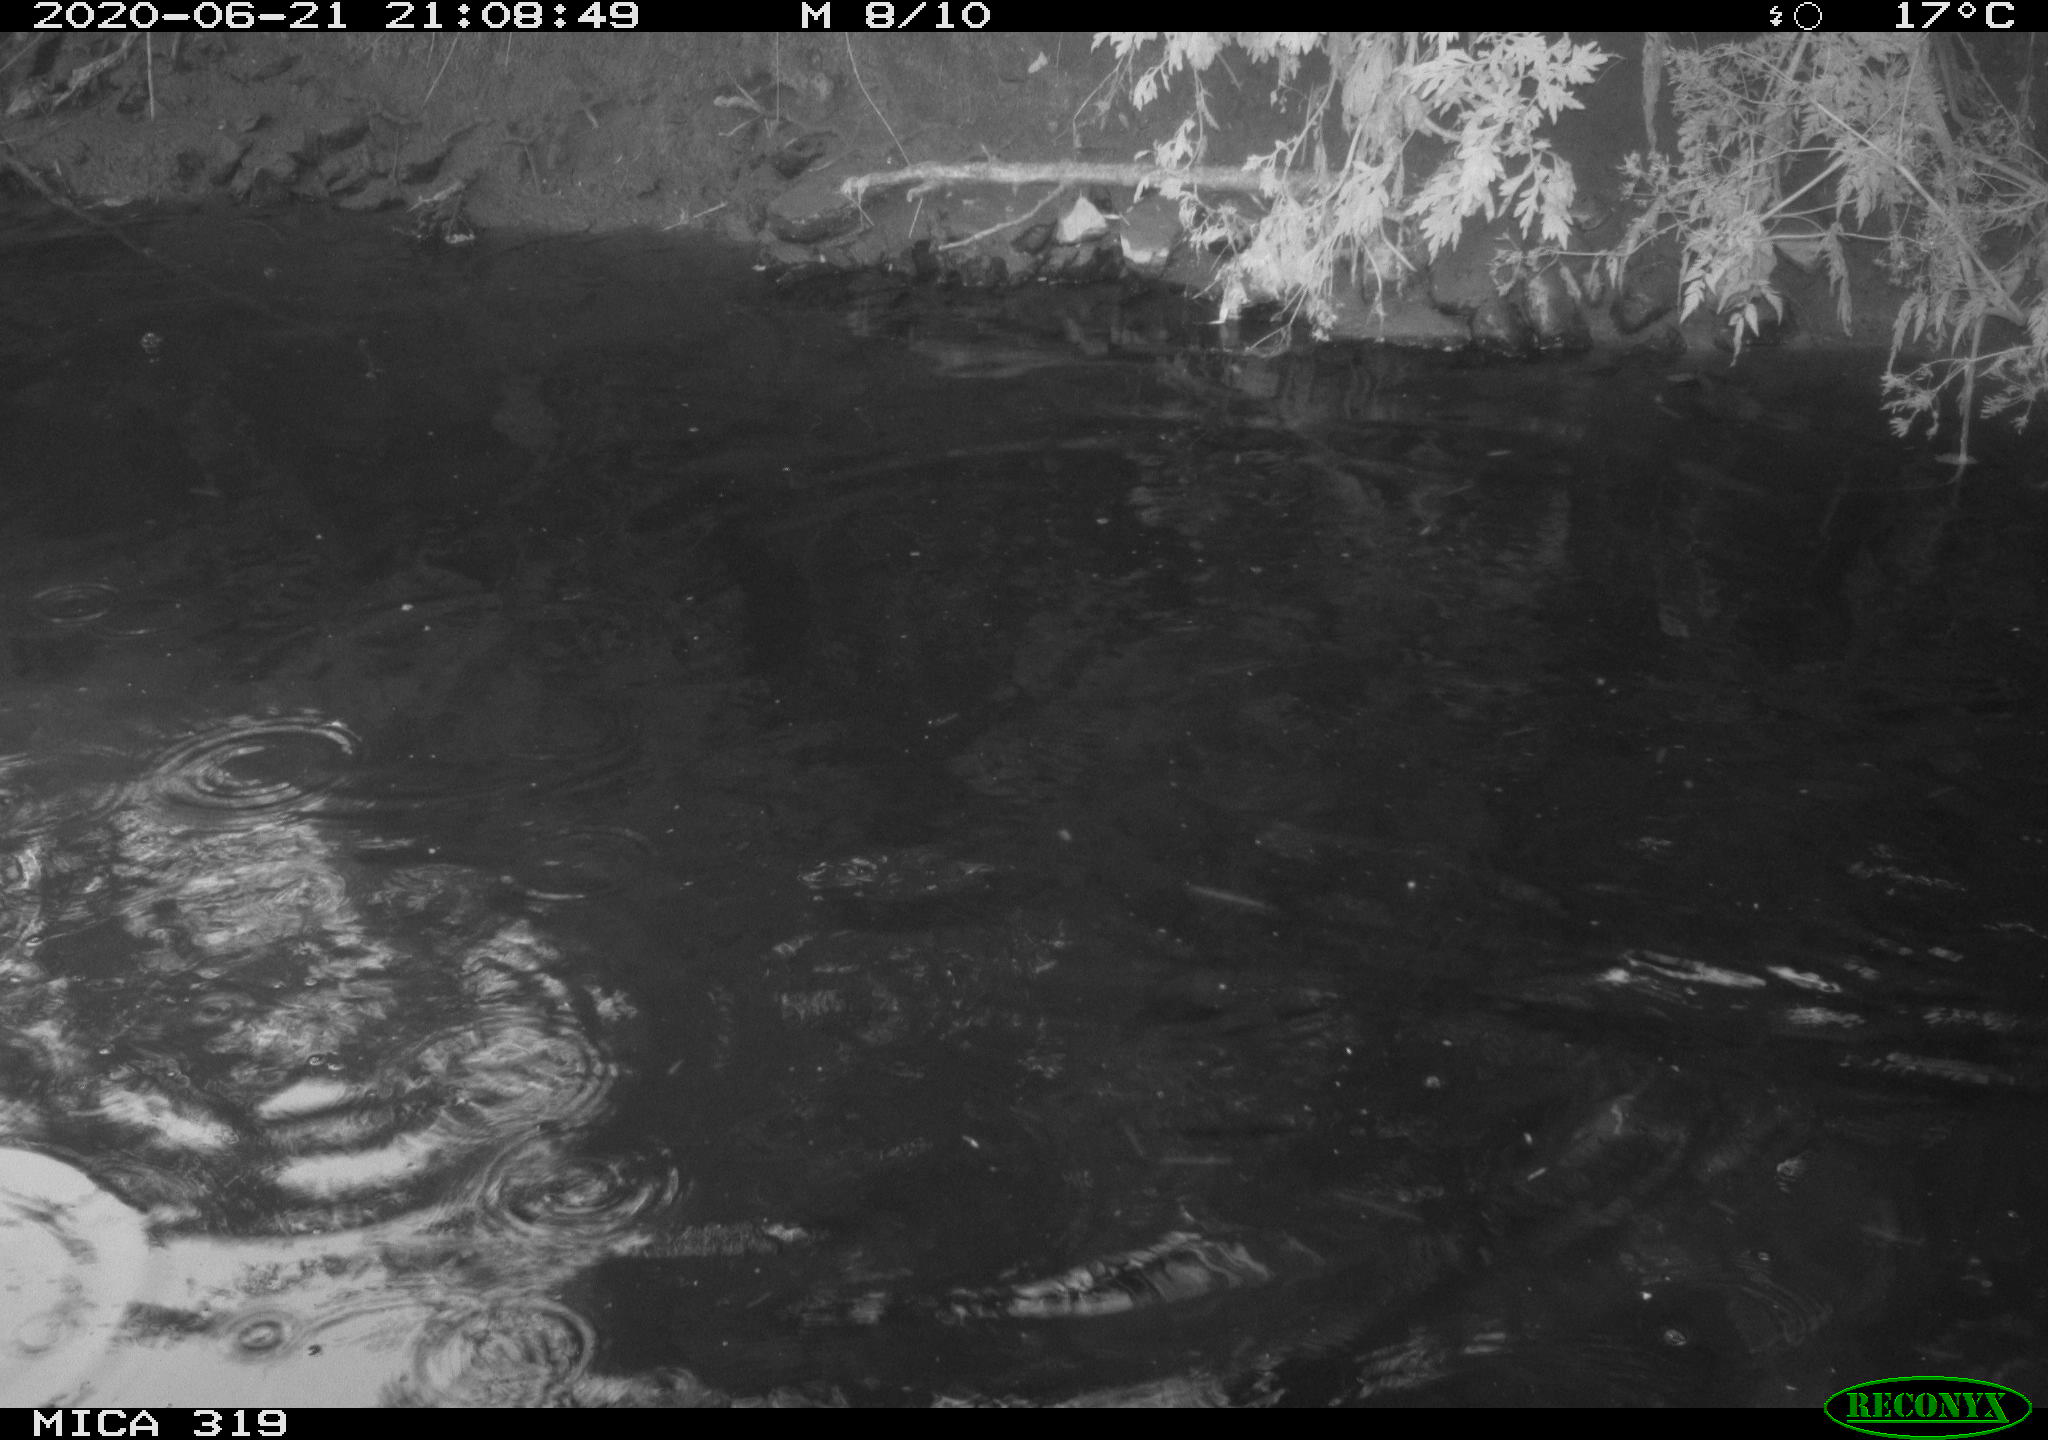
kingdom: Animalia
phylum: Chordata
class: Aves
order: Anseriformes
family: Anatidae
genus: Anas
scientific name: Anas platyrhynchos
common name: Mallard
